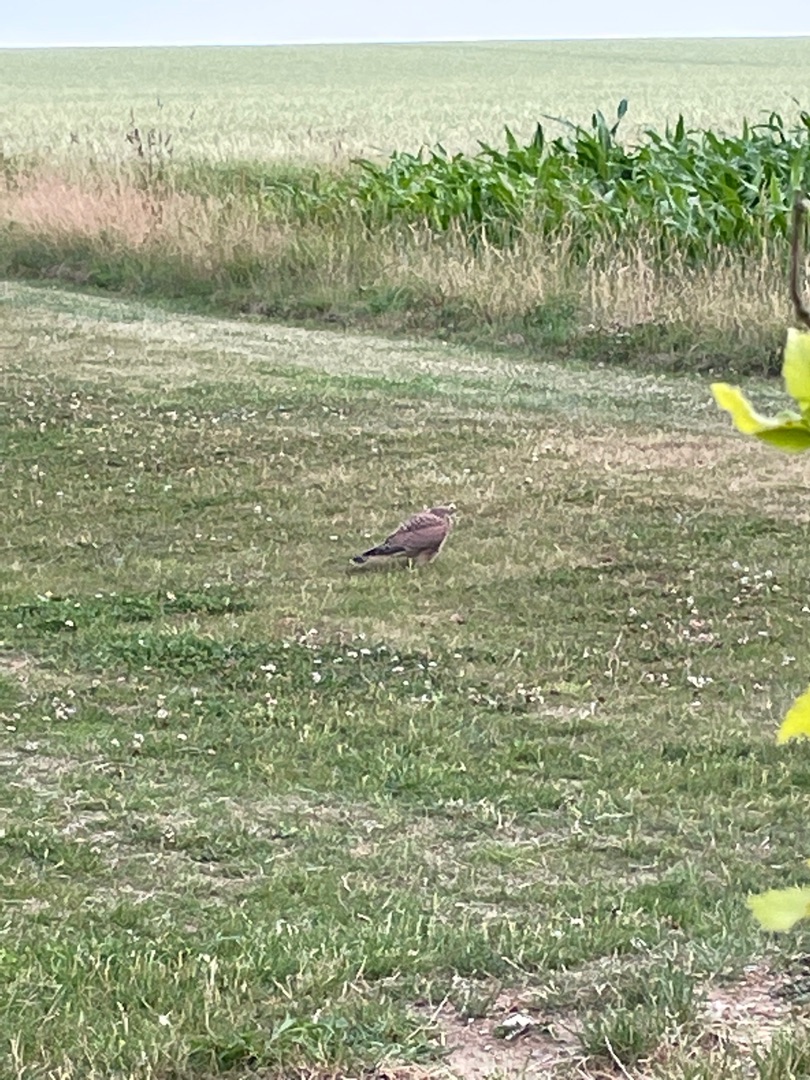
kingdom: Animalia
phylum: Chordata
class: Aves
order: Falconiformes
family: Falconidae
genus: Falco
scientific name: Falco tinnunculus
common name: Tårnfalk
